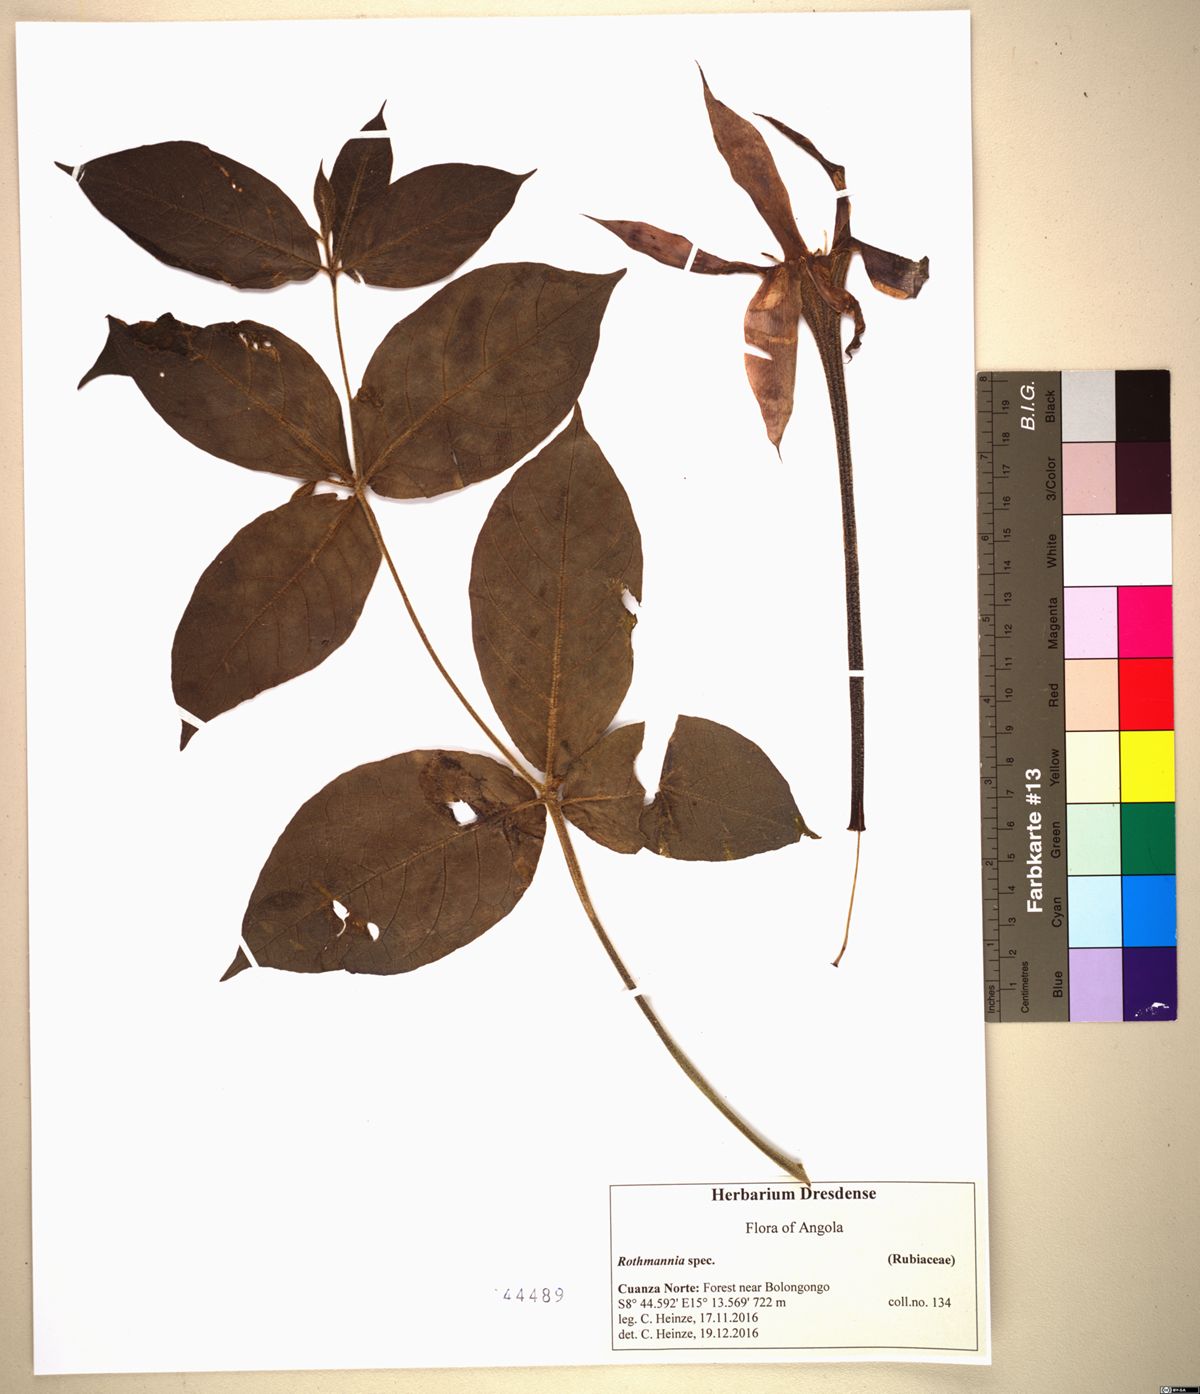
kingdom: Plantae
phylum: Tracheophyta
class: Magnoliopsida
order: Gentianales
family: Rubiaceae
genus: Rothmannia
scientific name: Rothmannia octomera
